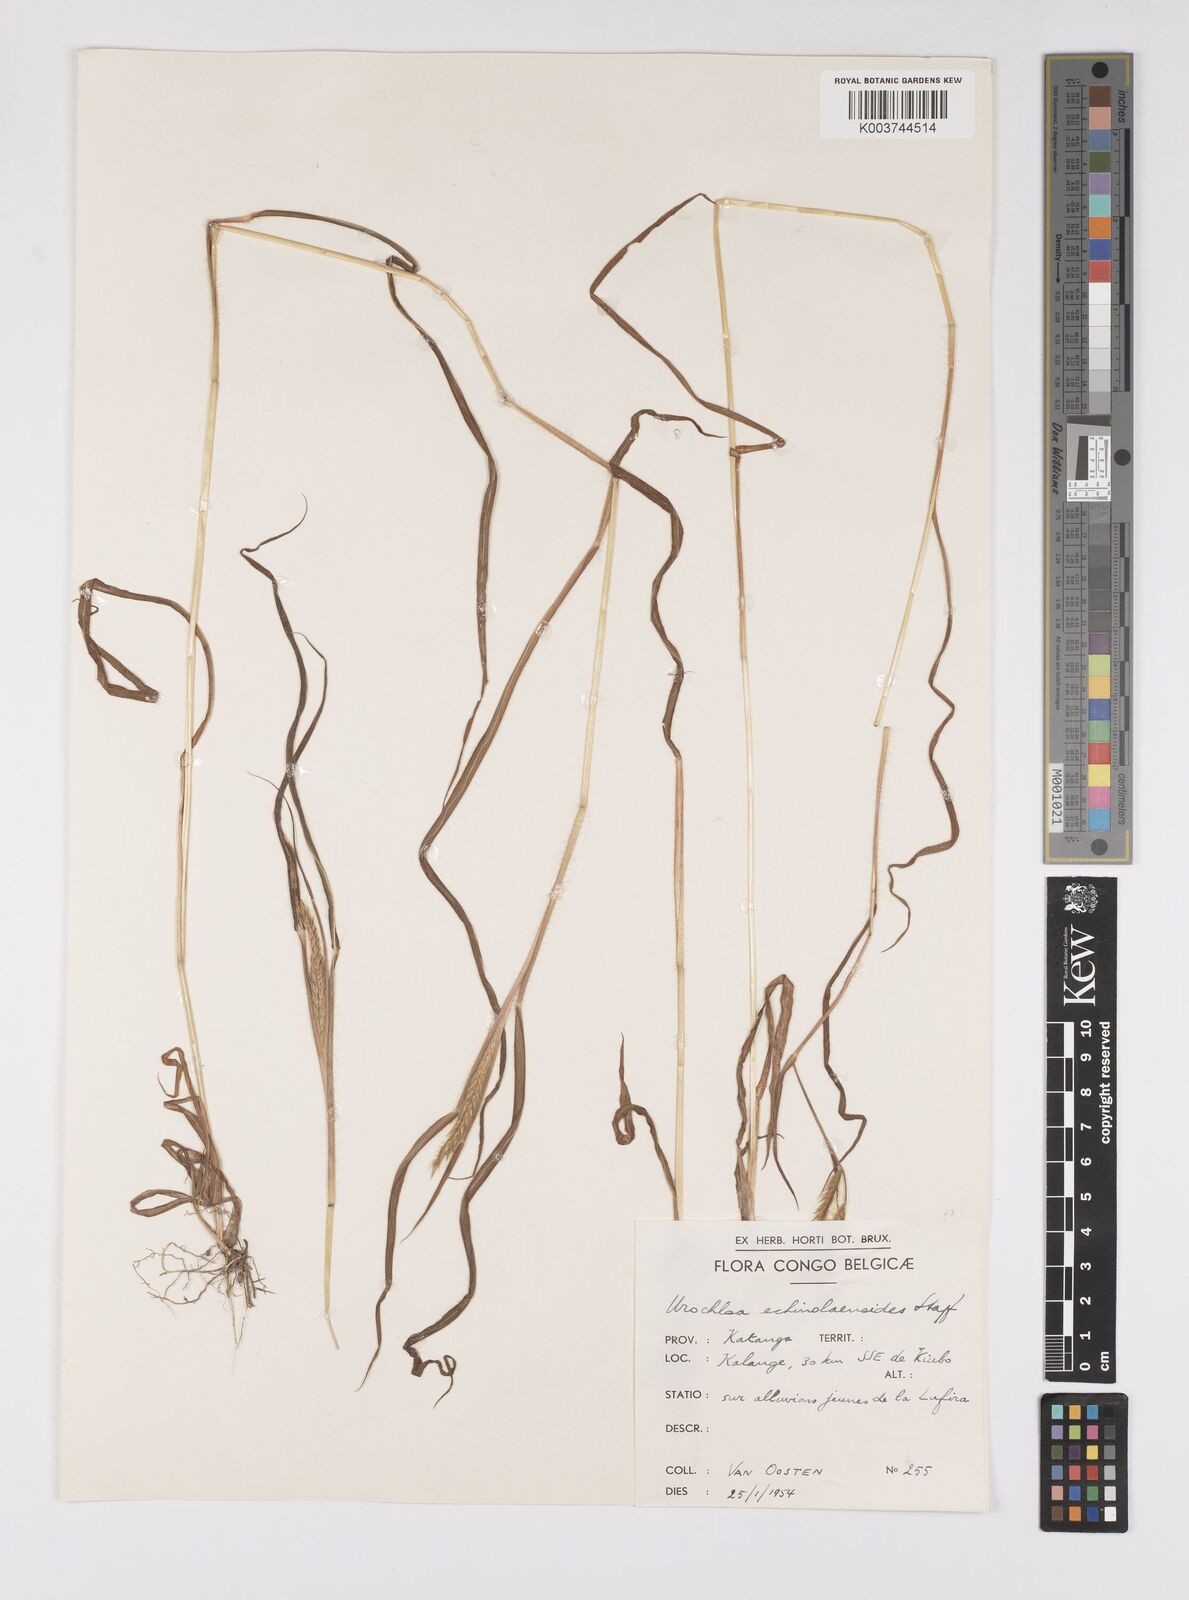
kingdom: Plantae
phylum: Tracheophyta
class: Liliopsida
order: Poales
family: Poaceae
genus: Urochloa
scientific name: Urochloa echinolaenoides
